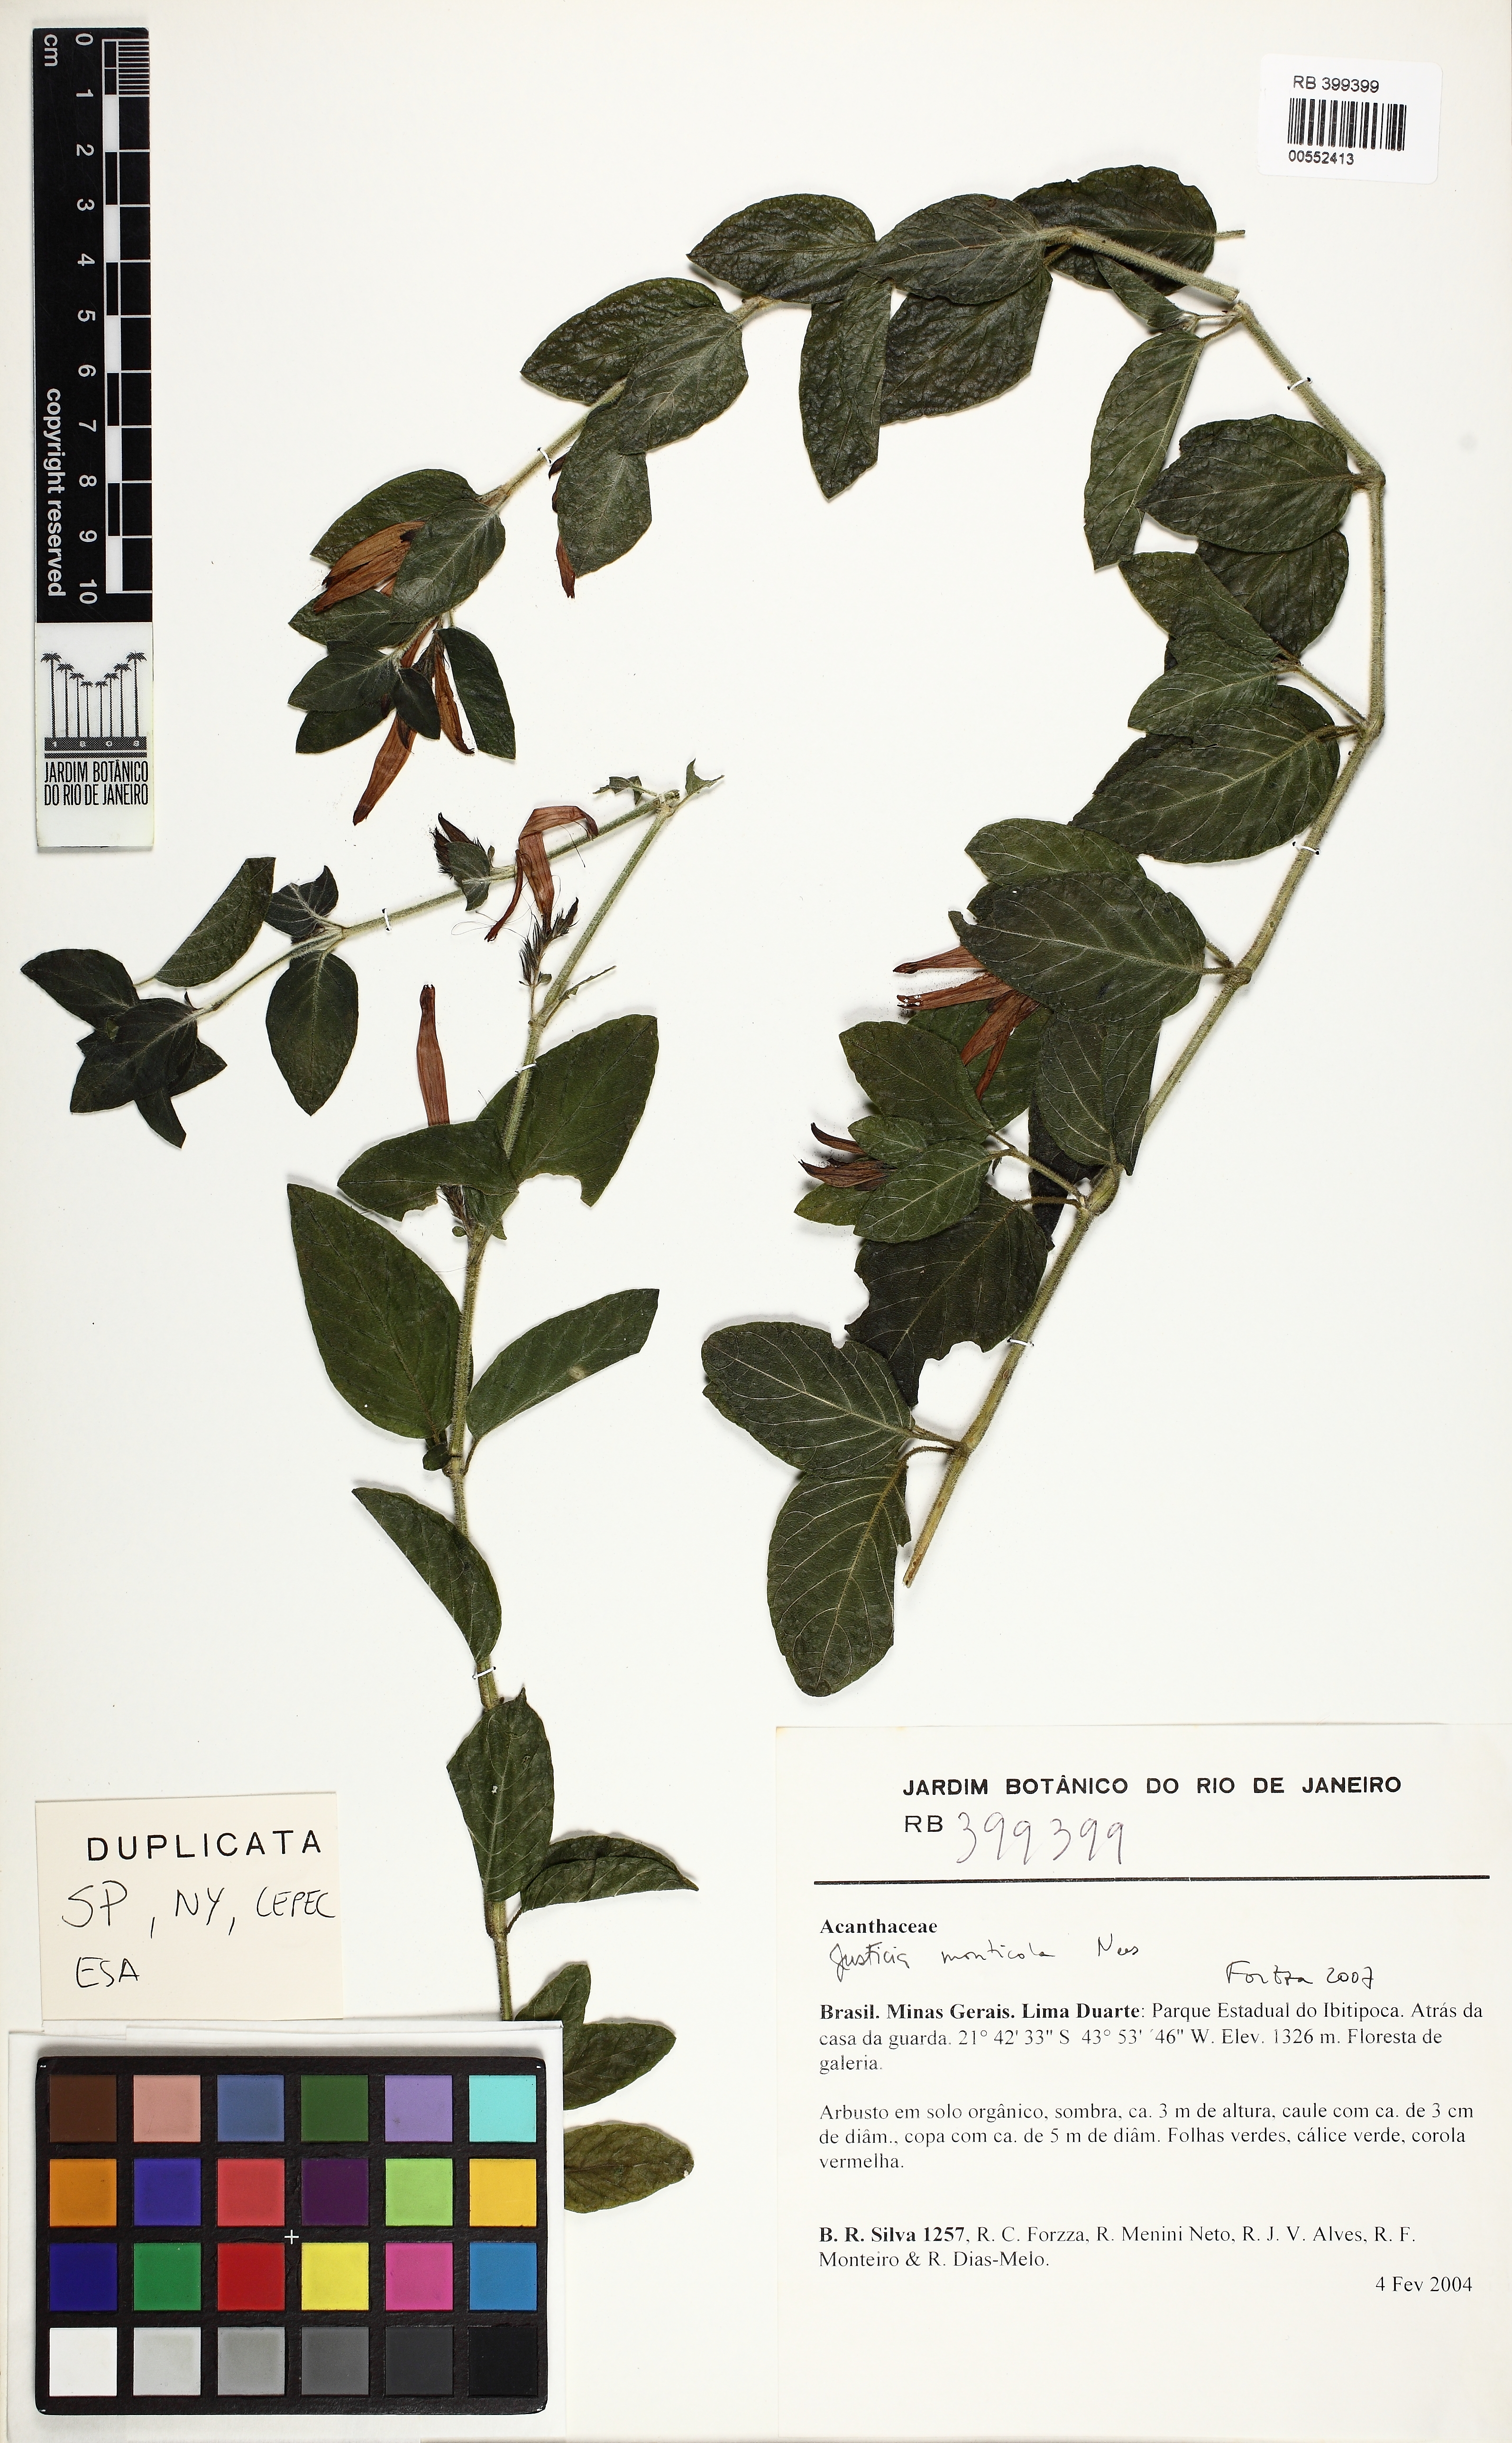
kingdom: Plantae
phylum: Tracheophyta
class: Magnoliopsida
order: Lamiales
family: Acanthaceae
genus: Justicia
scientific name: Justicia monticola
